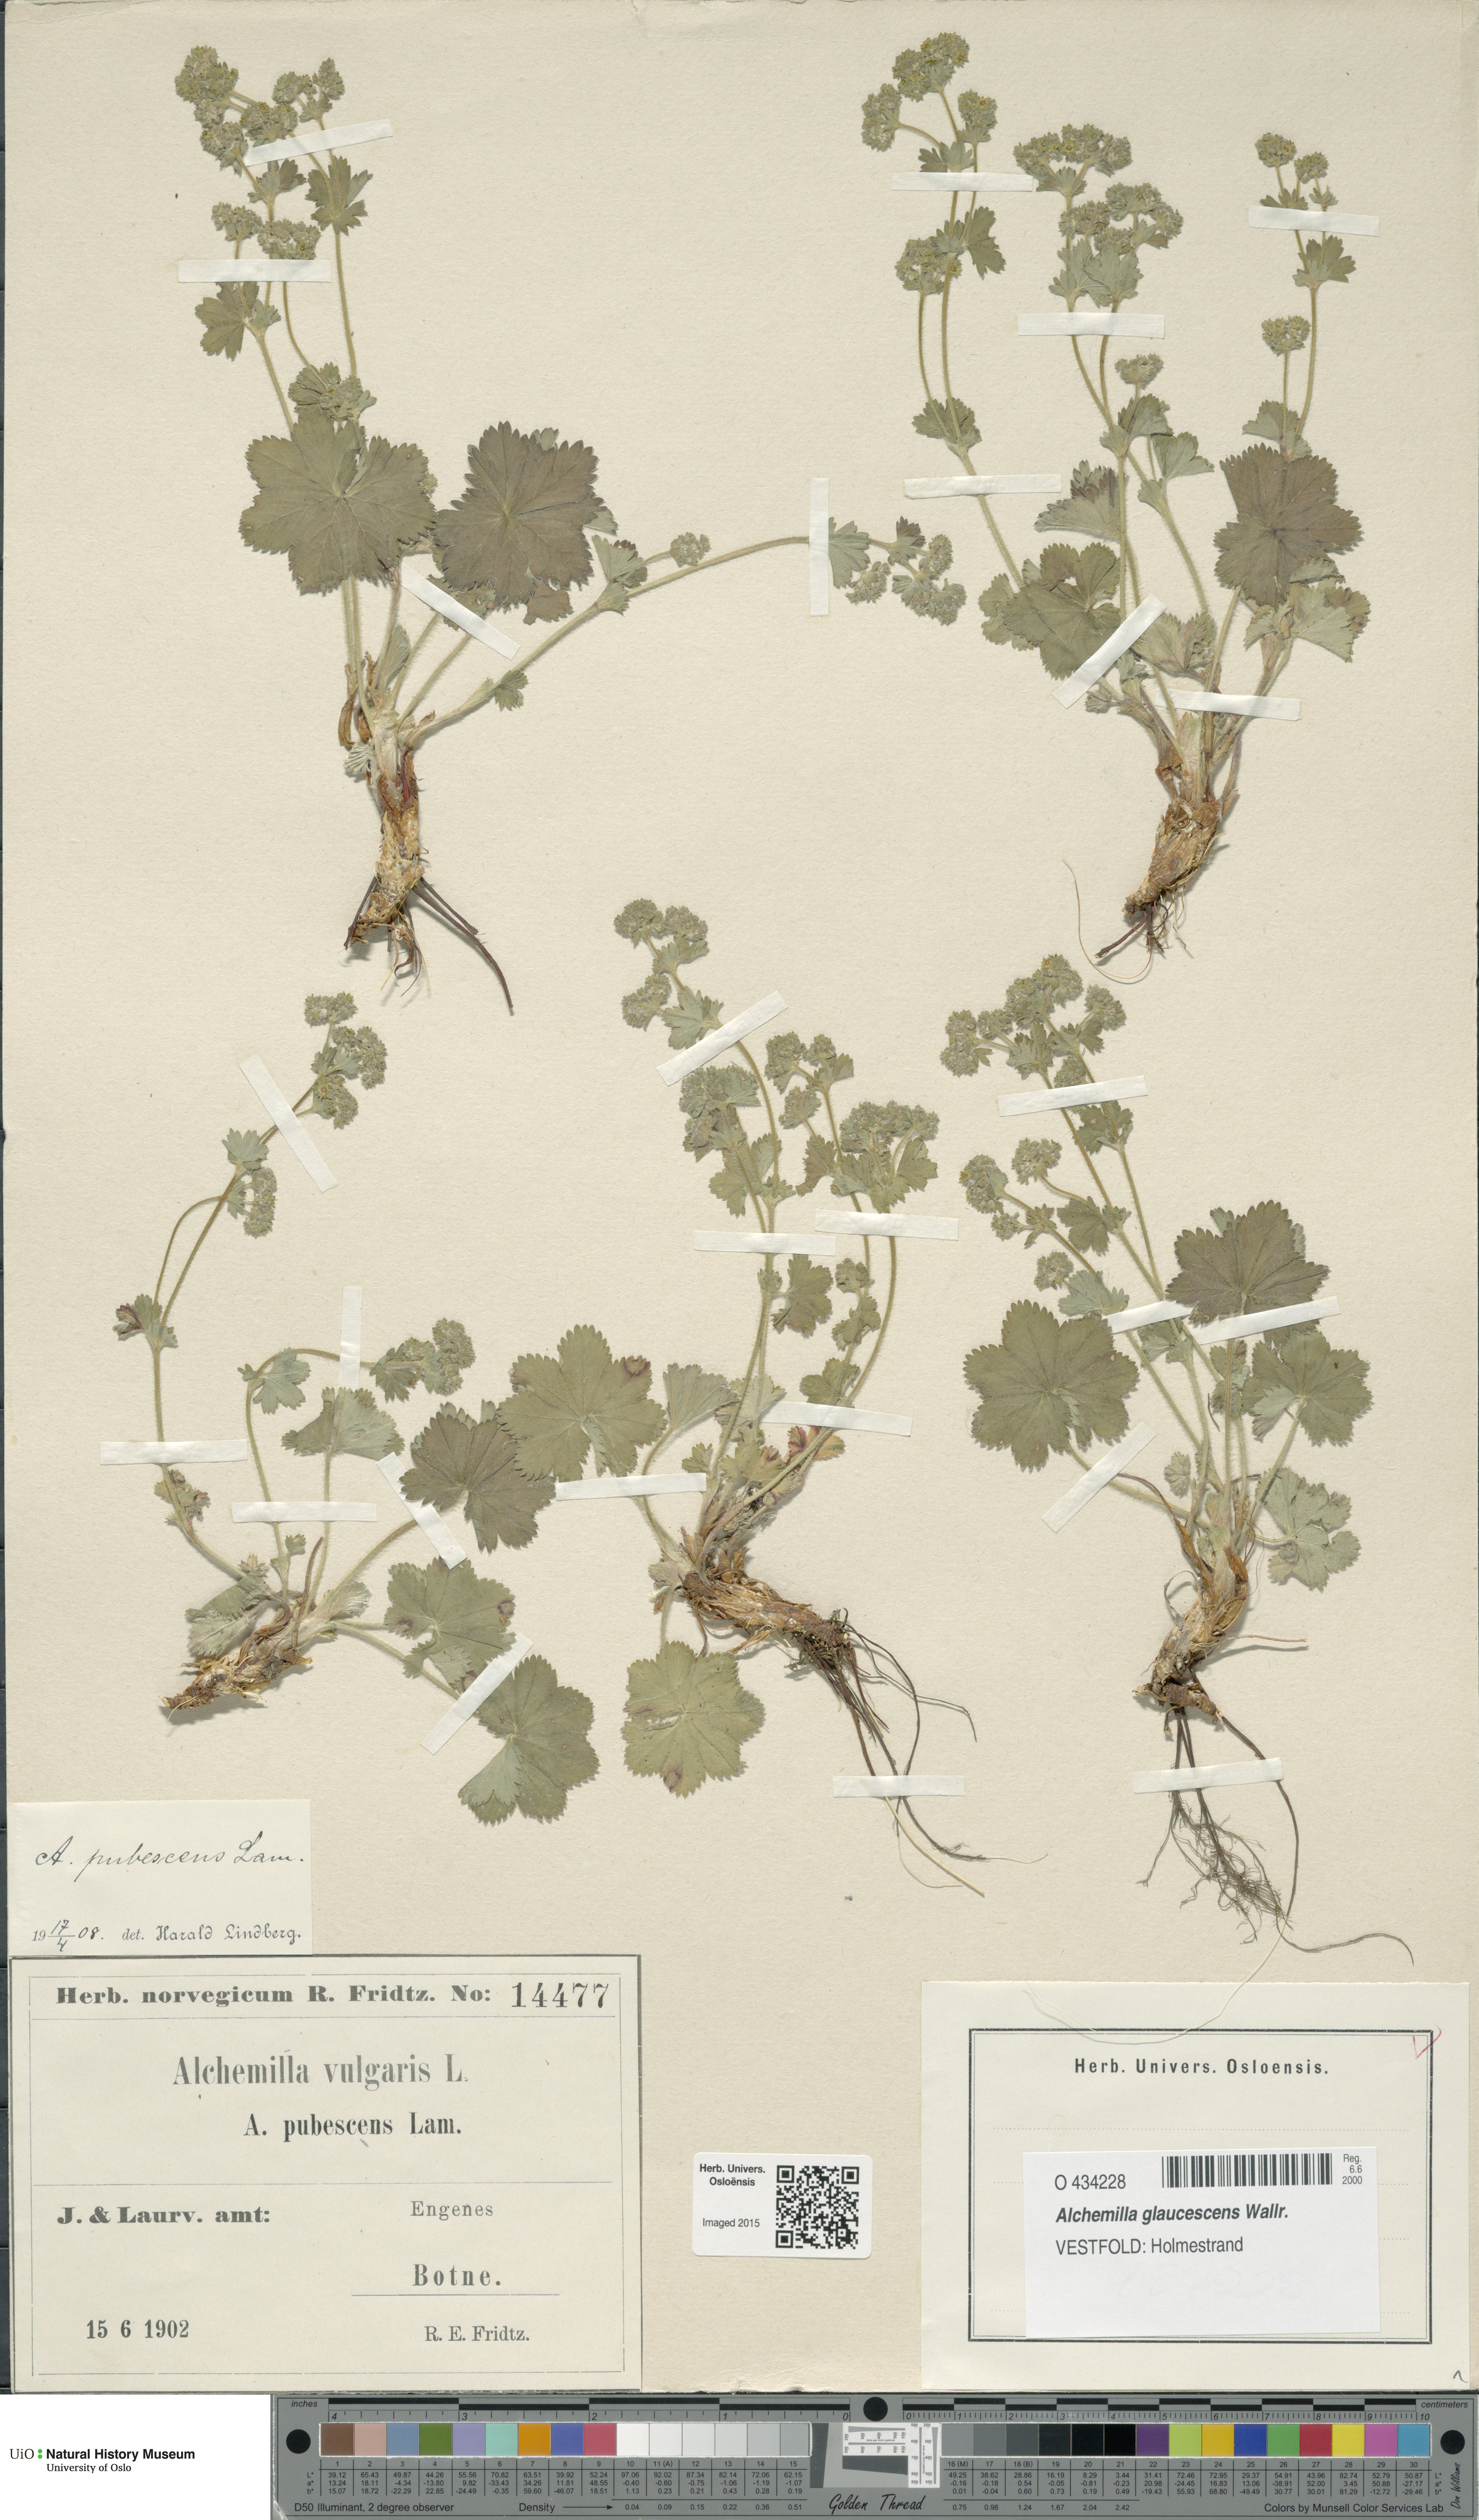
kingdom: Plantae
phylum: Tracheophyta
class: Magnoliopsida
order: Rosales
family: Rosaceae
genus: Alchemilla
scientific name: Alchemilla glaucescens
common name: Silky lady's mantle
